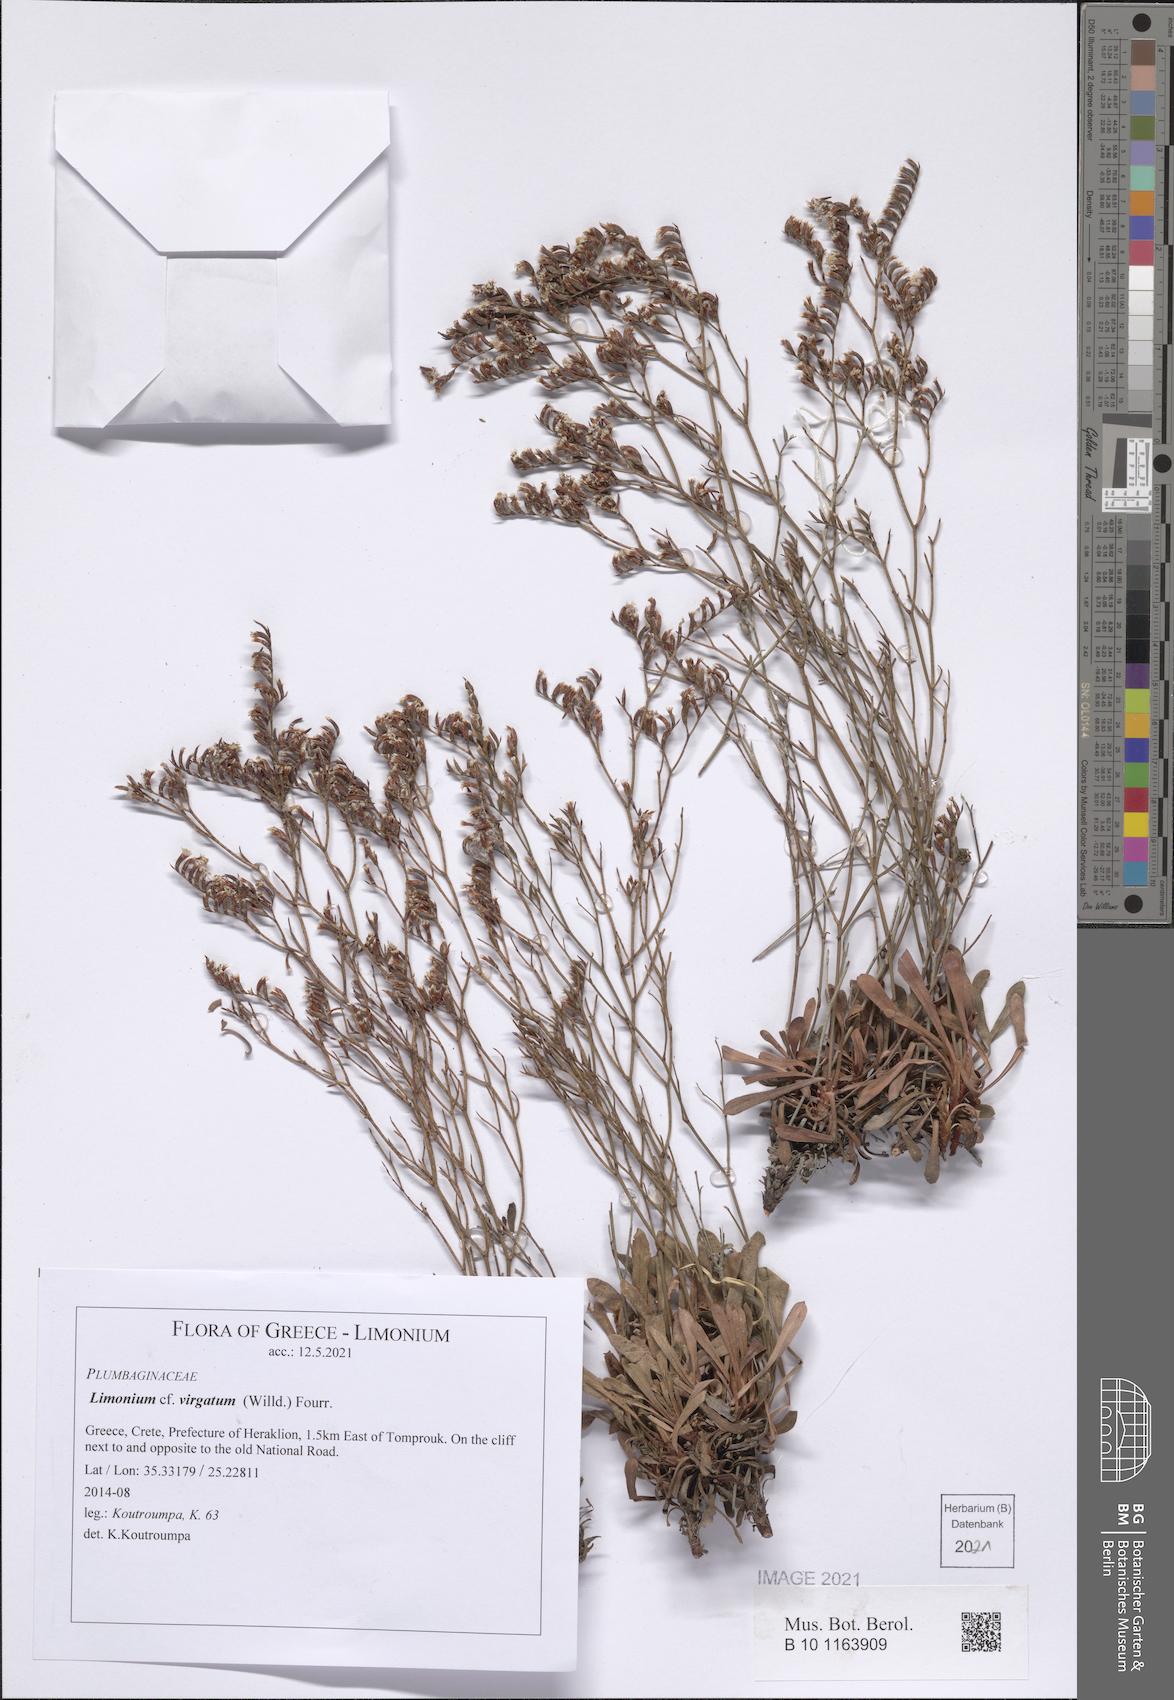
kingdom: Plantae
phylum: Tracheophyta
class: Magnoliopsida
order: Caryophyllales
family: Plumbaginaceae
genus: Limonium
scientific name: Limonium virgatum
